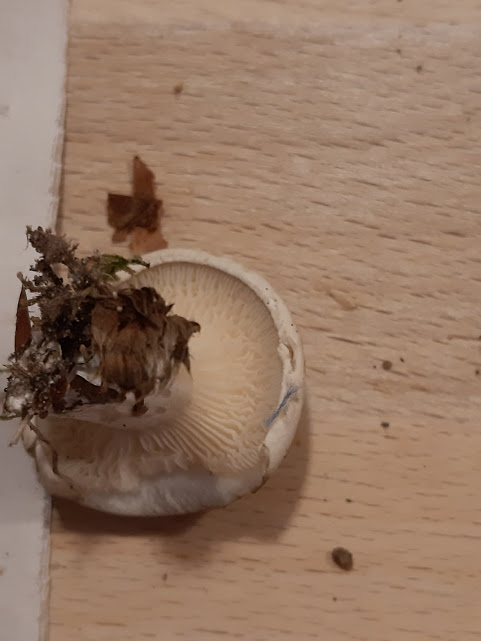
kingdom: Fungi
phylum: Basidiomycota
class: Agaricomycetes
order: Agaricales
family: Entolomataceae
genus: Clitopilus
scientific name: Clitopilus prunulus
